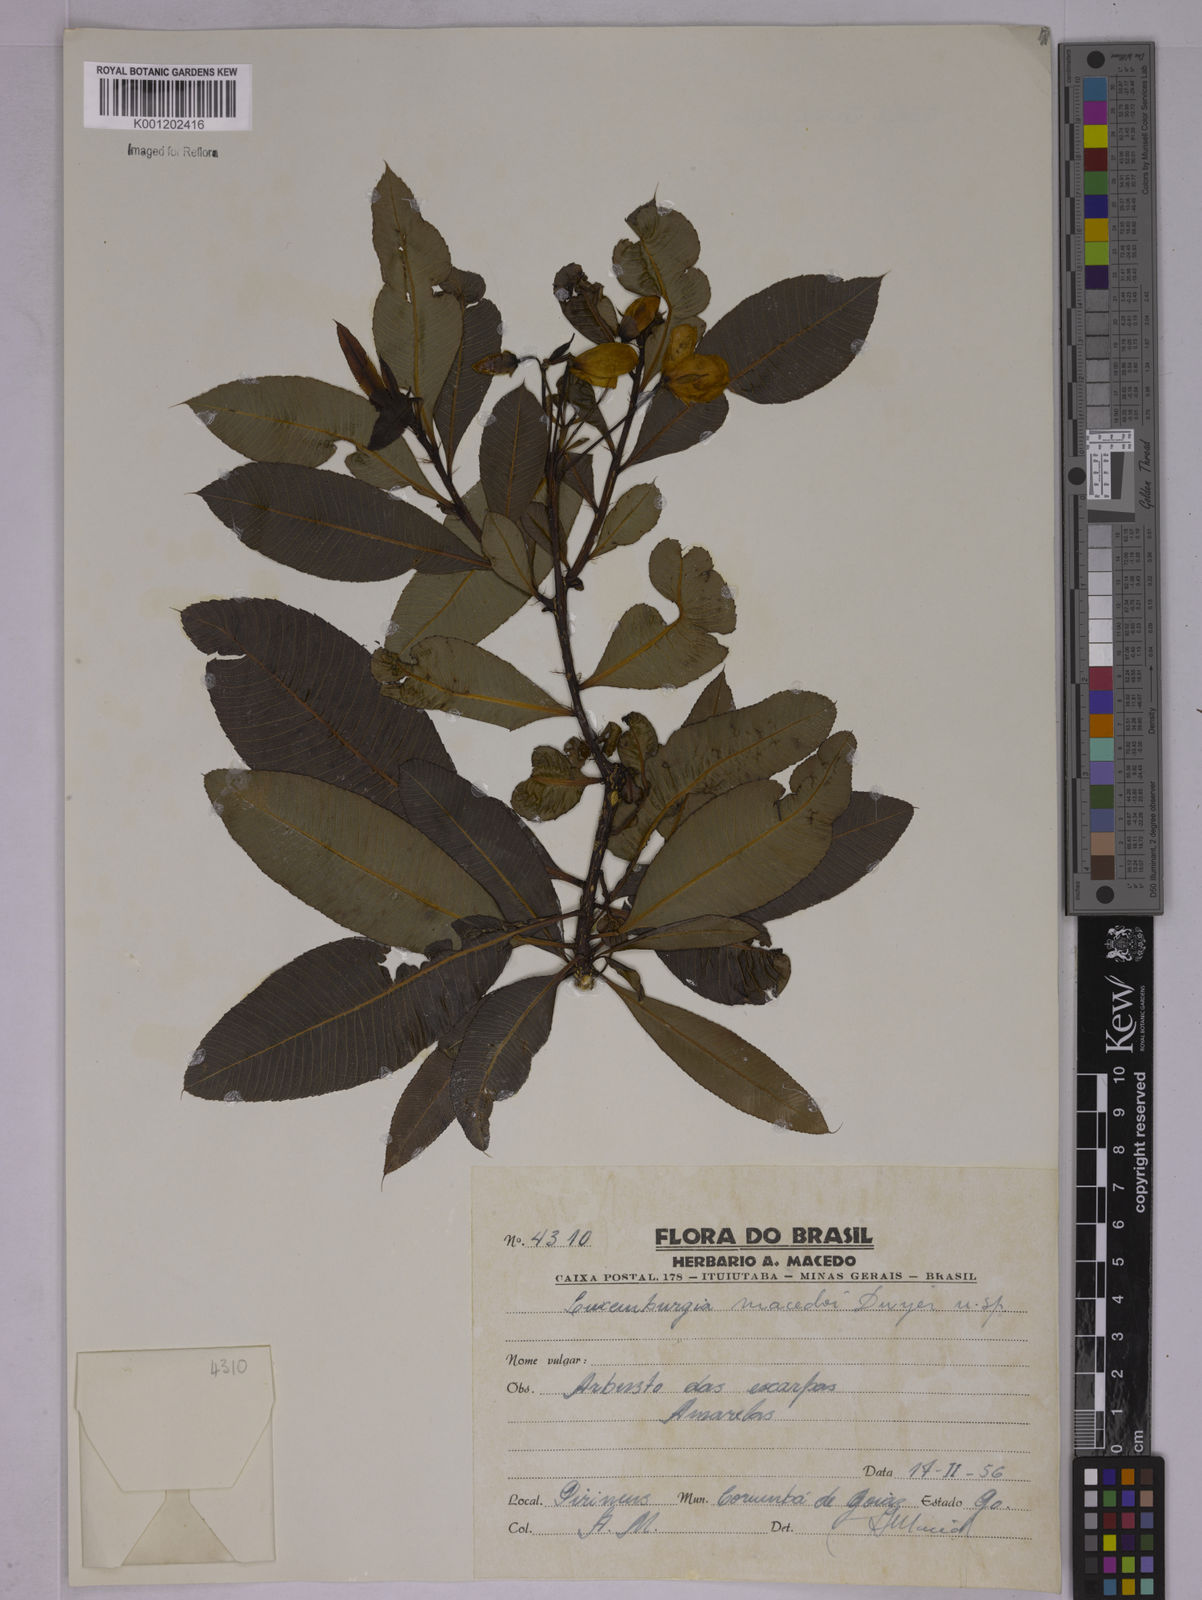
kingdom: Plantae
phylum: Tracheophyta
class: Magnoliopsida
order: Malpighiales
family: Ochnaceae
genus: Luxemburgia
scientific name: Luxemburgia macedoi
